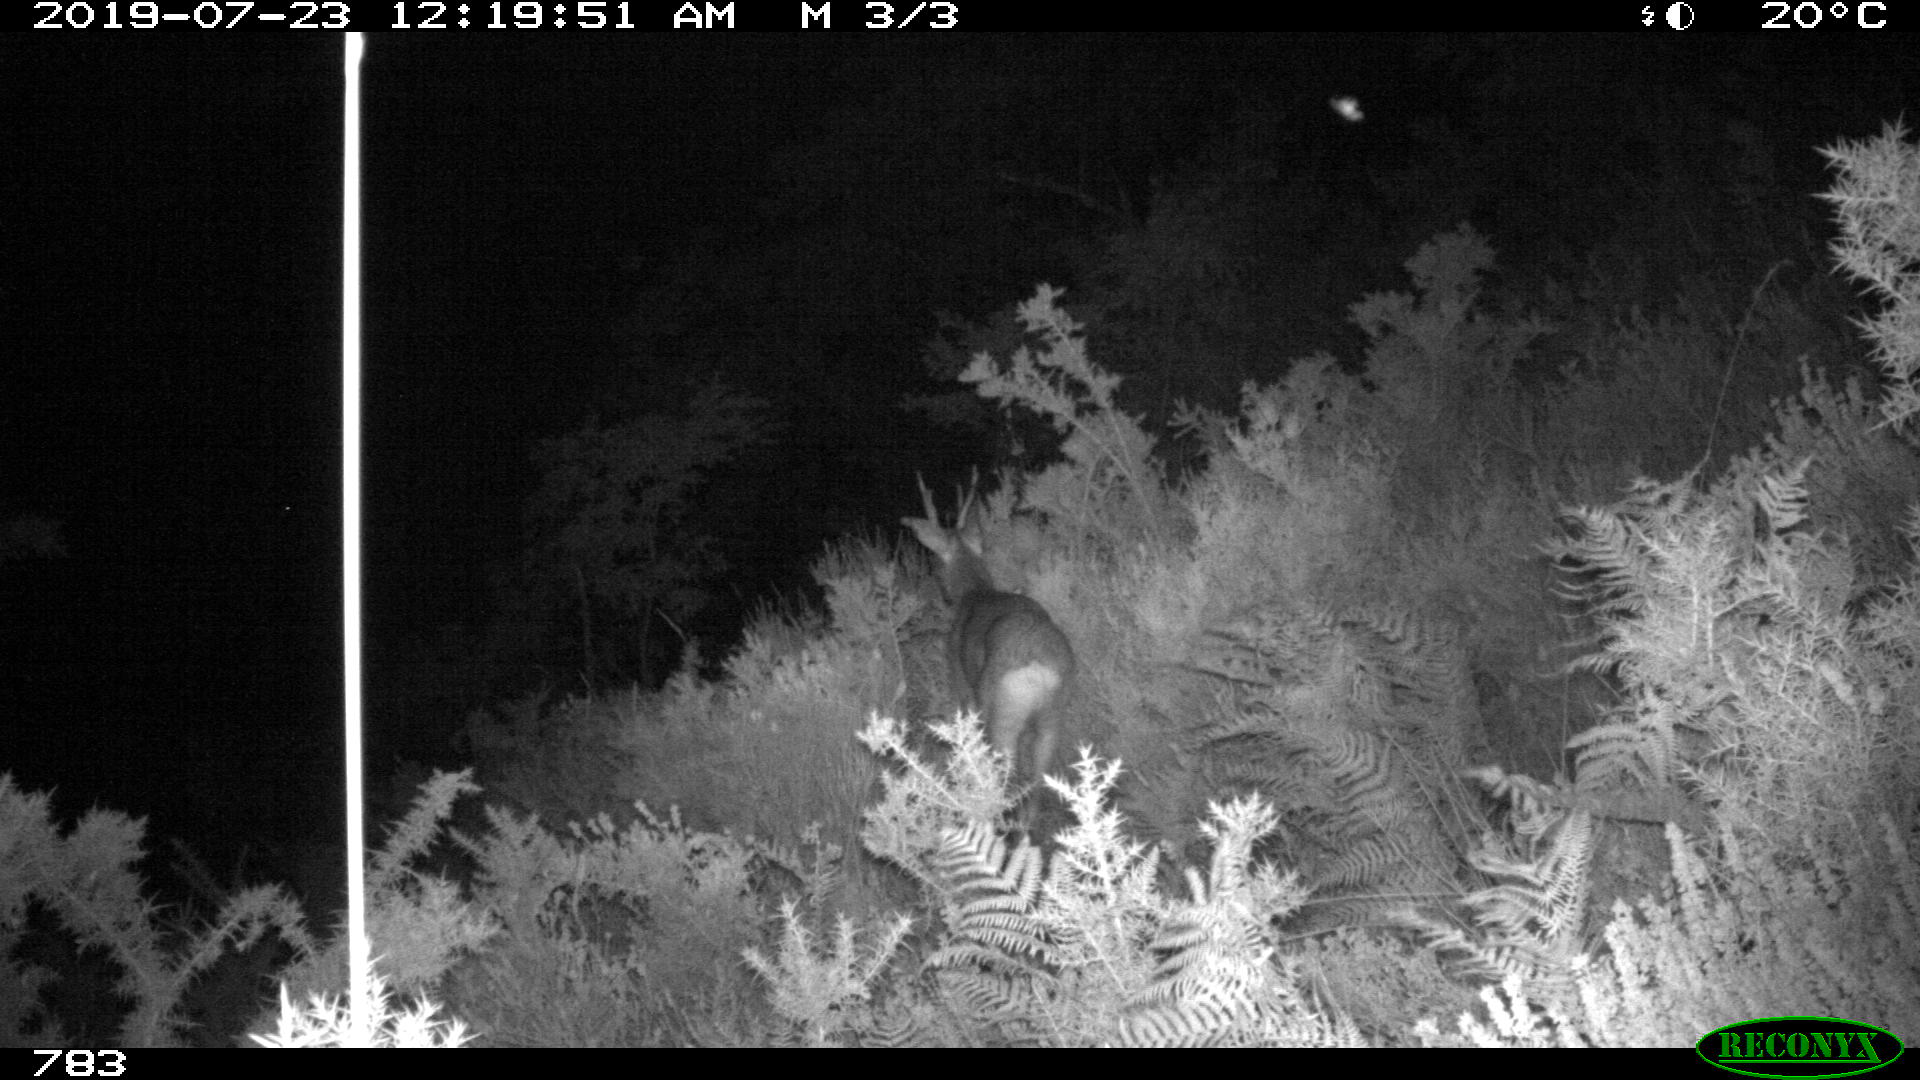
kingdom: Animalia
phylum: Chordata
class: Mammalia
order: Artiodactyla
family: Cervidae
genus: Capreolus
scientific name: Capreolus capreolus
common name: Western roe deer
